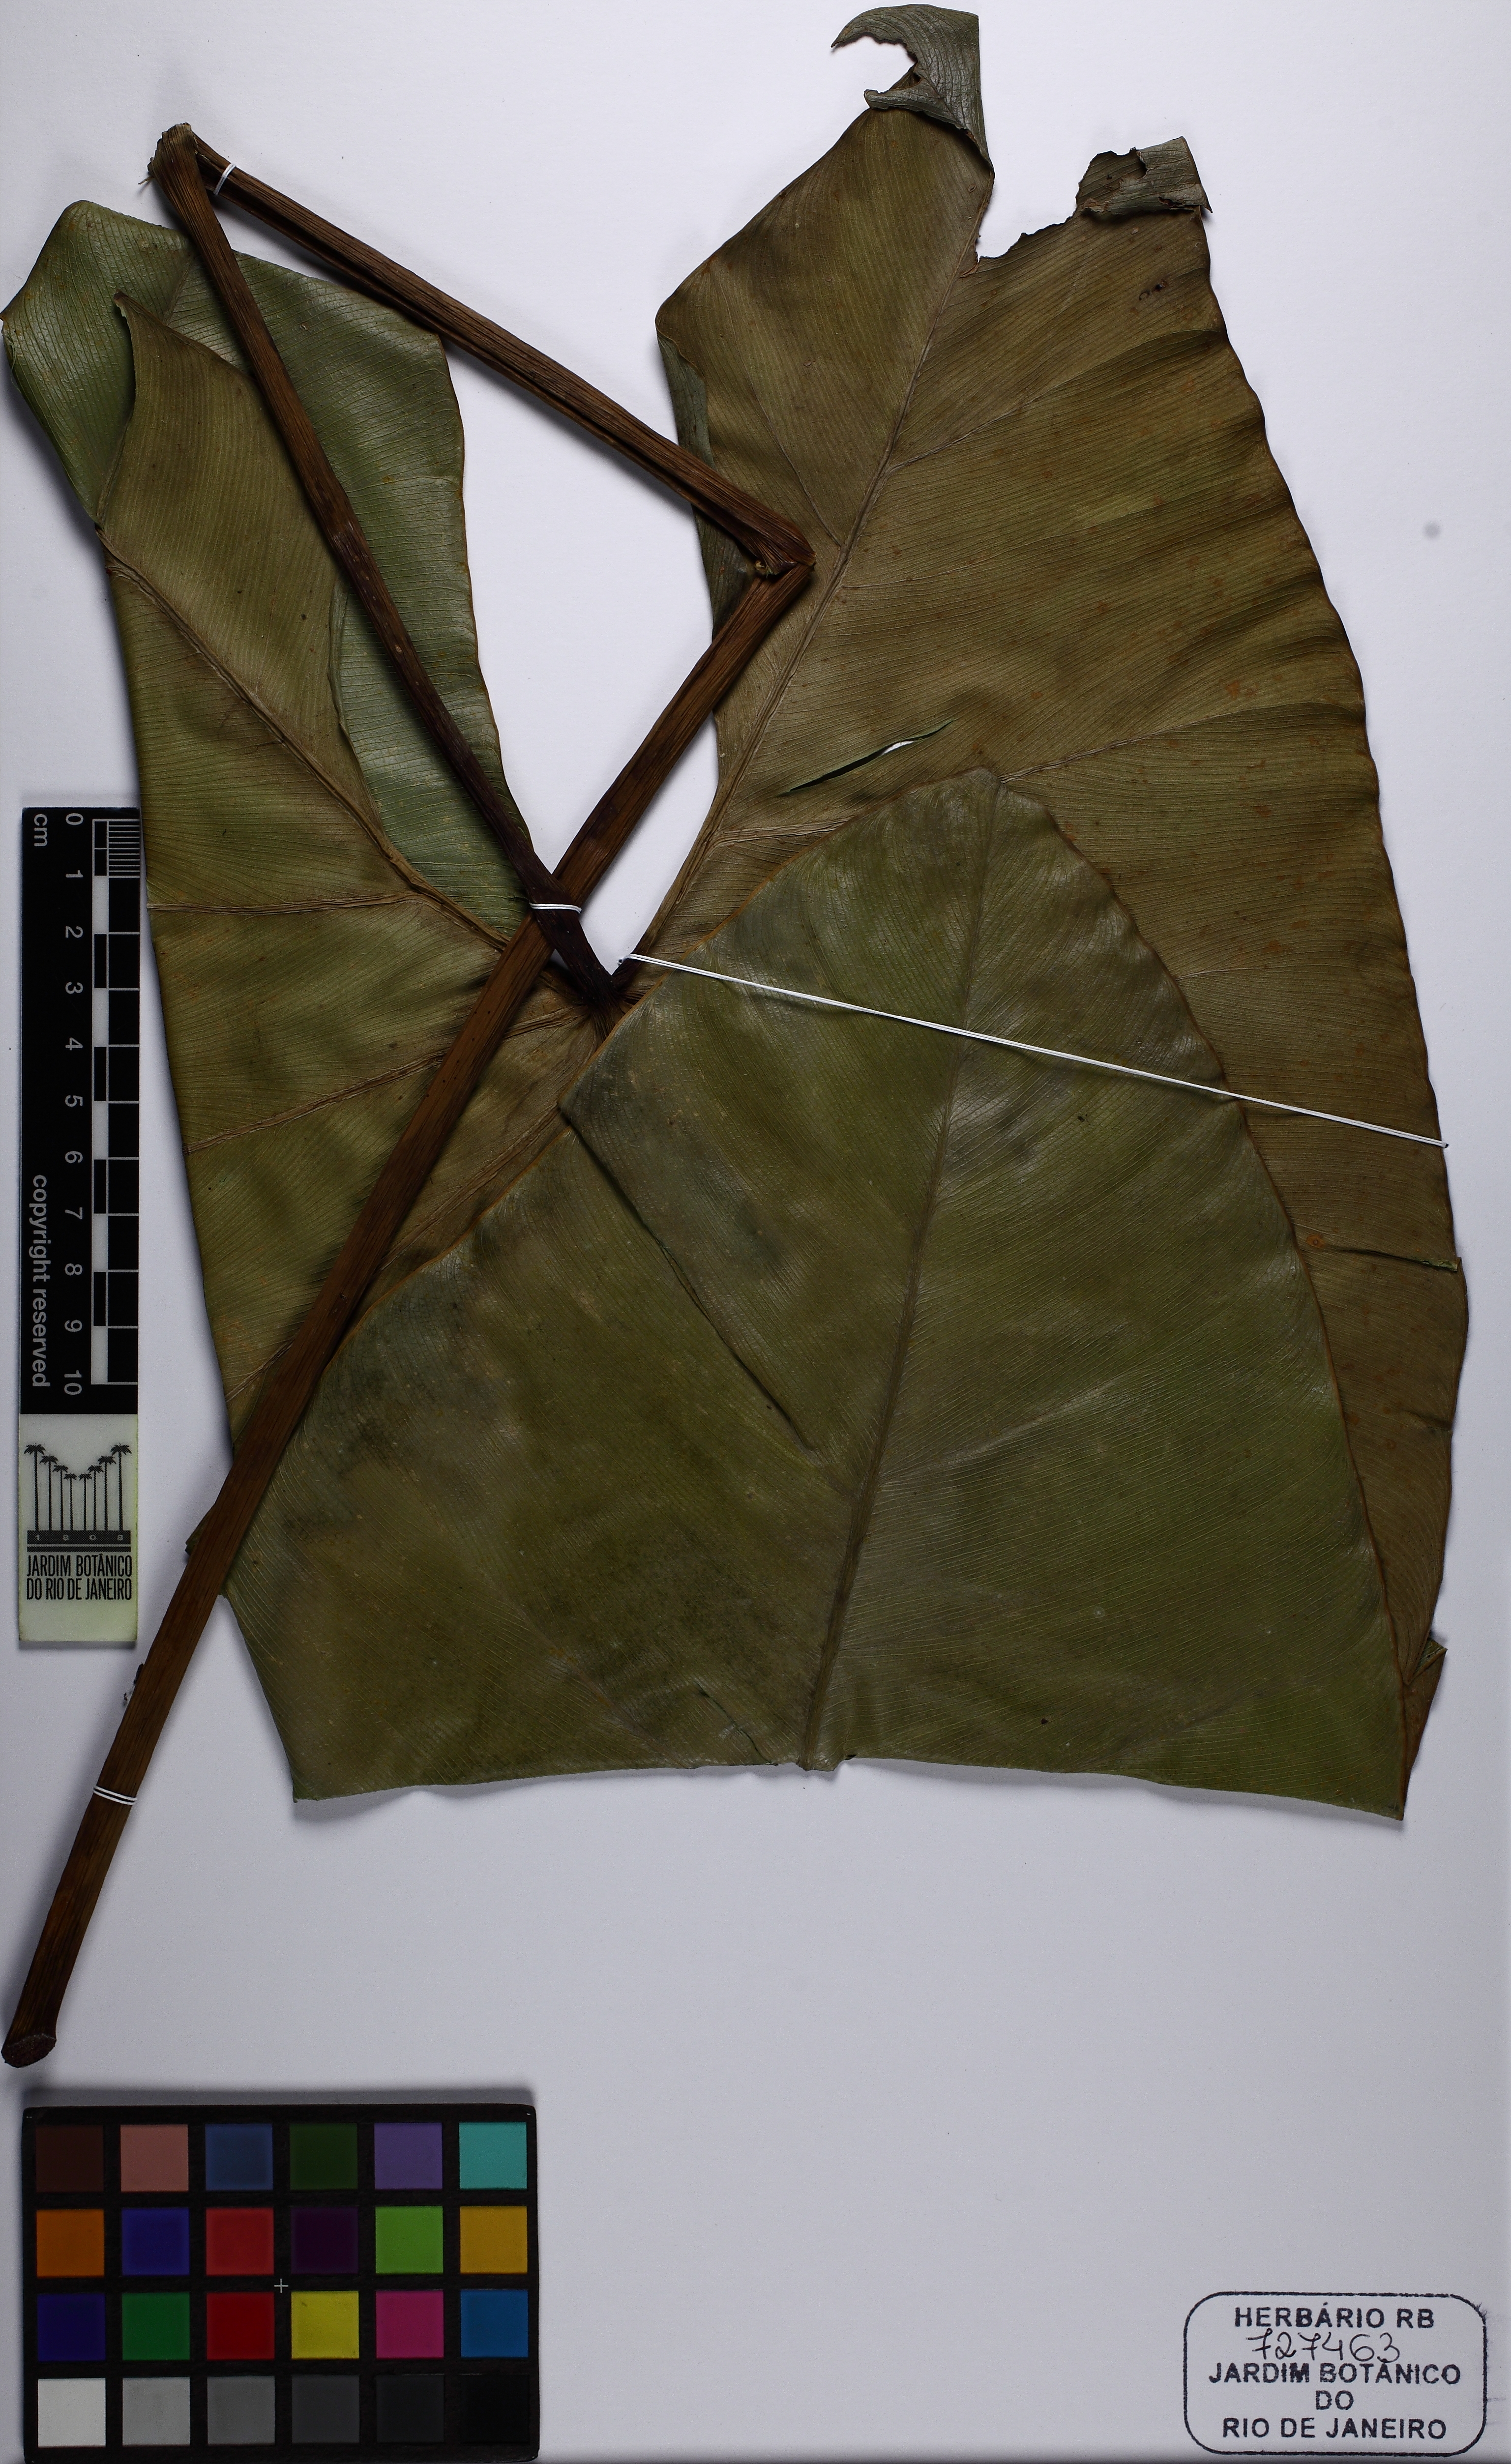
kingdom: Plantae
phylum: Tracheophyta
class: Liliopsida
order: Alismatales
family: Araceae
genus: Thaumatophyllum
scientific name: Thaumatophyllum williamsii
